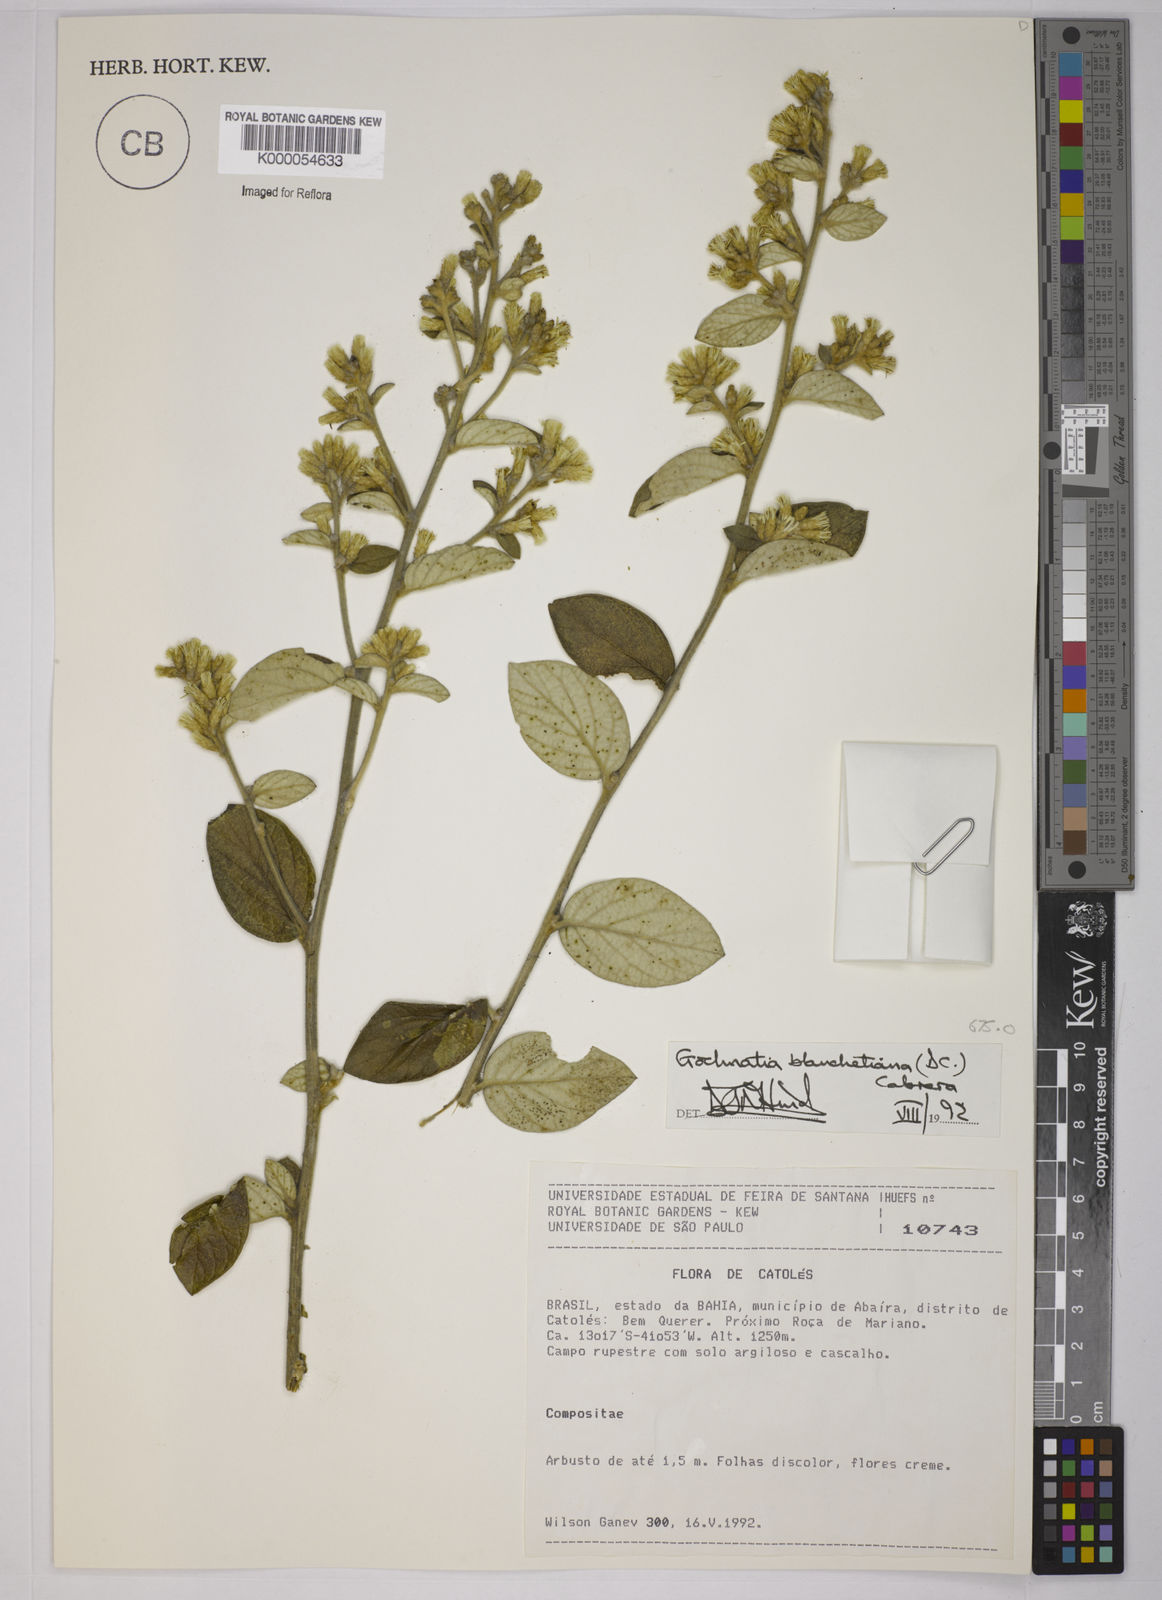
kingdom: Plantae
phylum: Tracheophyta
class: Magnoliopsida
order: Asterales
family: Asteraceae
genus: Moquiniastrum
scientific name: Moquiniastrum blanchetianum
